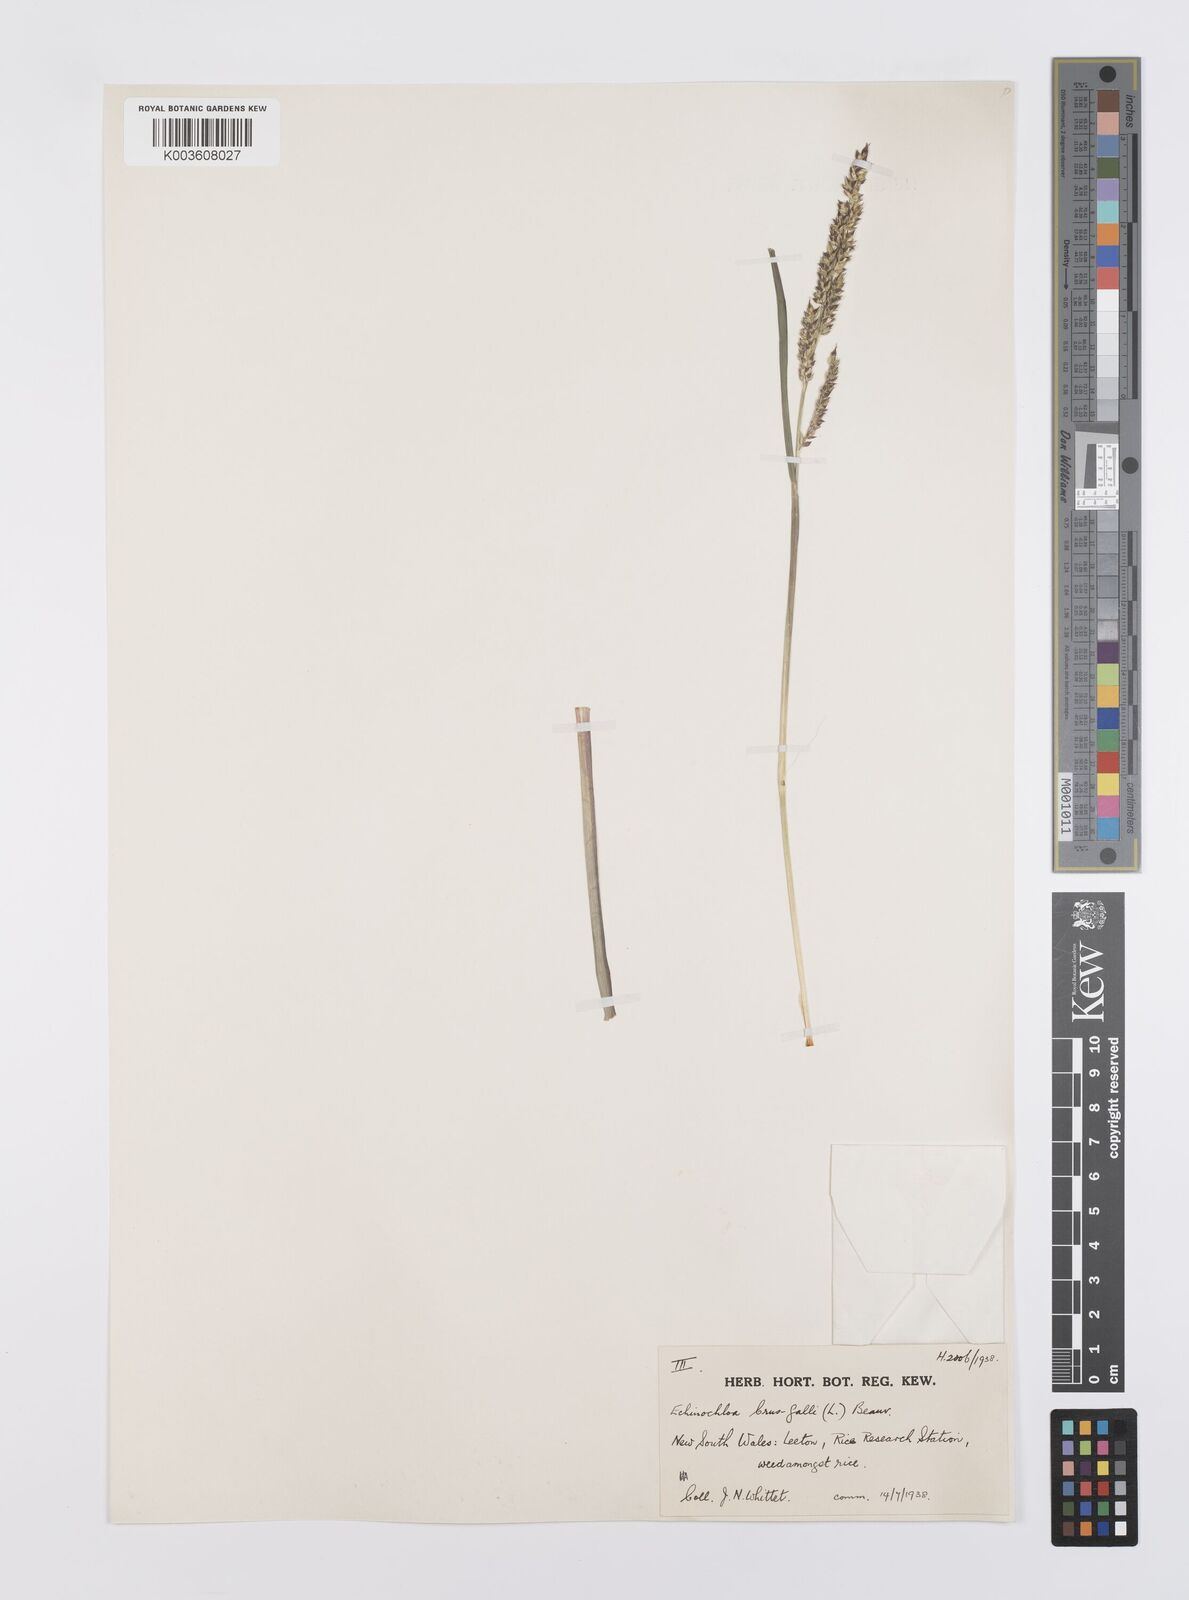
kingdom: Plantae
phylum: Tracheophyta
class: Liliopsida
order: Poales
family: Poaceae
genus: Echinochloa
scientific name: Echinochloa crus-galli
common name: Cockspur
